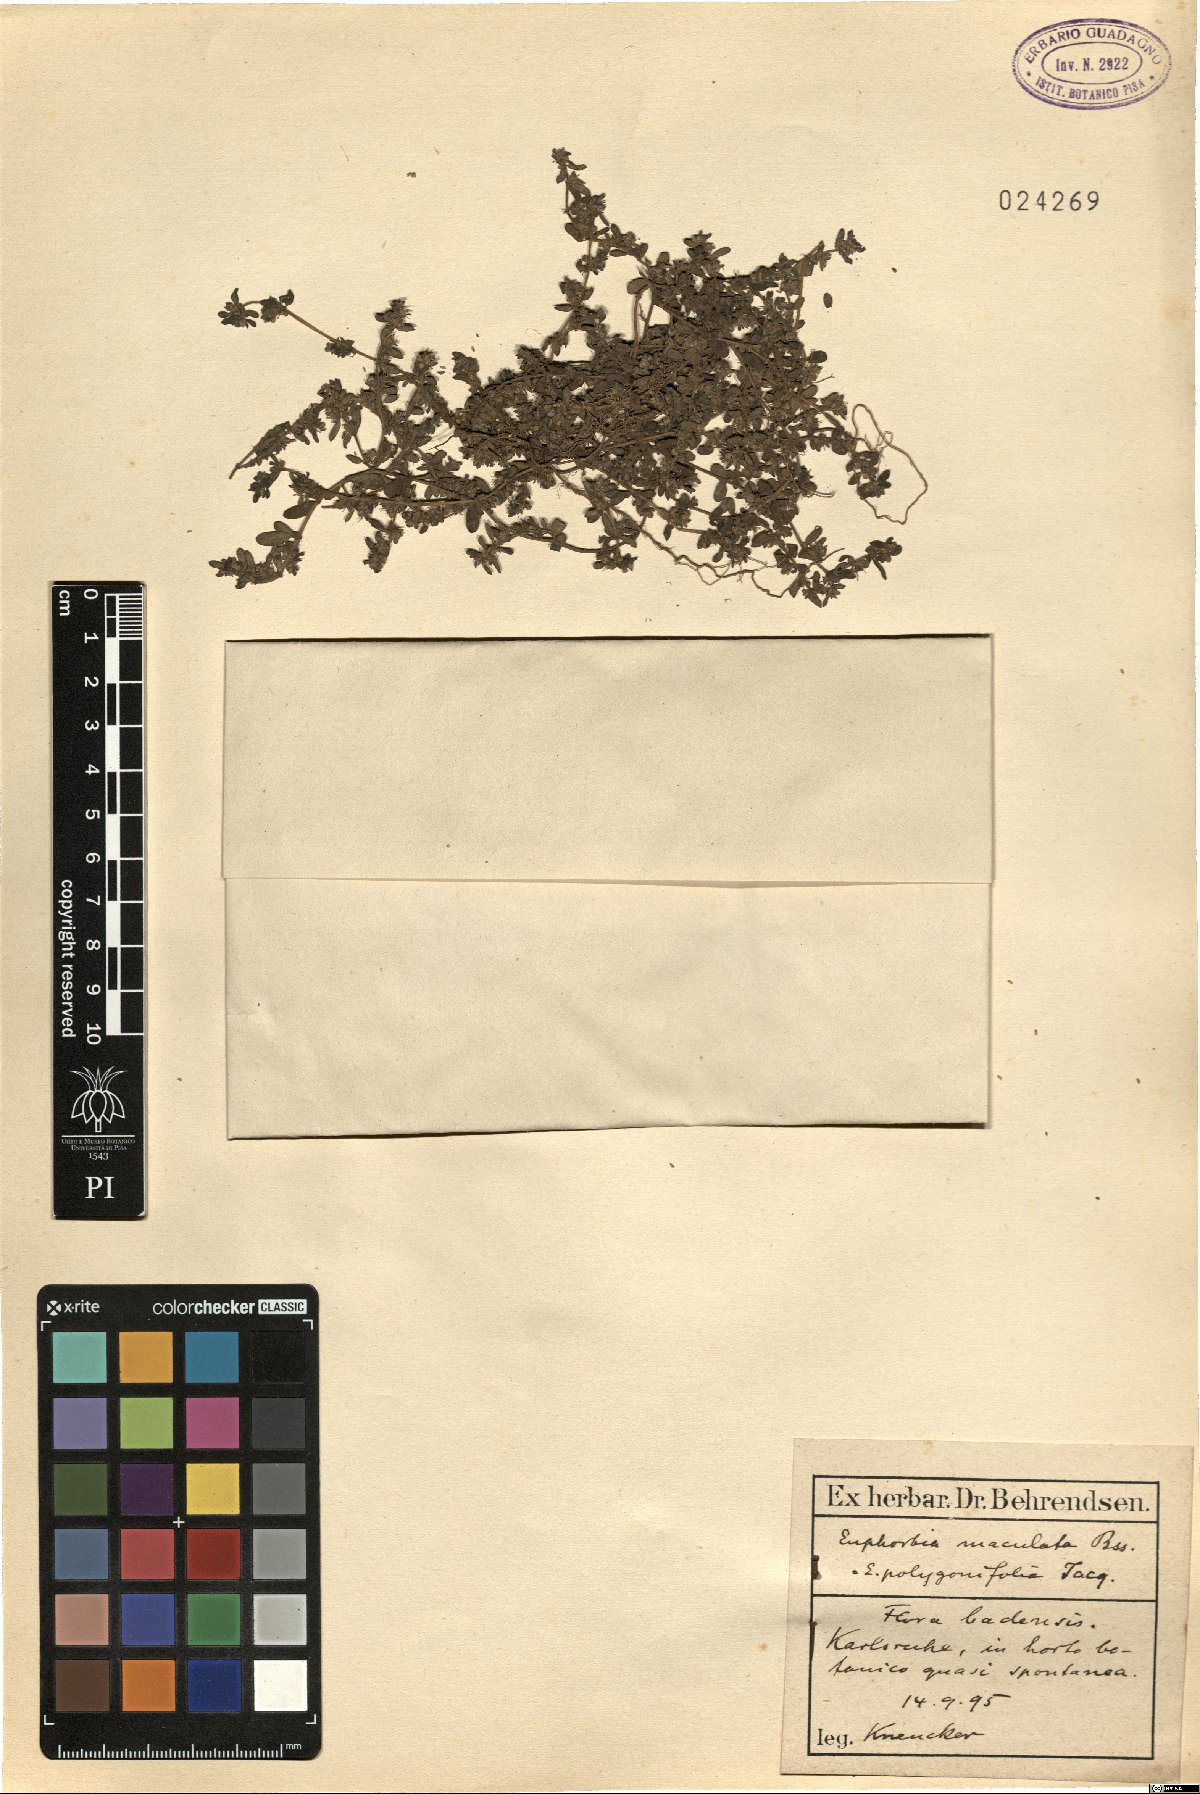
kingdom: Plantae
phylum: Tracheophyta
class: Magnoliopsida
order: Malpighiales
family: Euphorbiaceae
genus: Euphorbia
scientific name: Euphorbia maculata
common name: Spotted spurge
